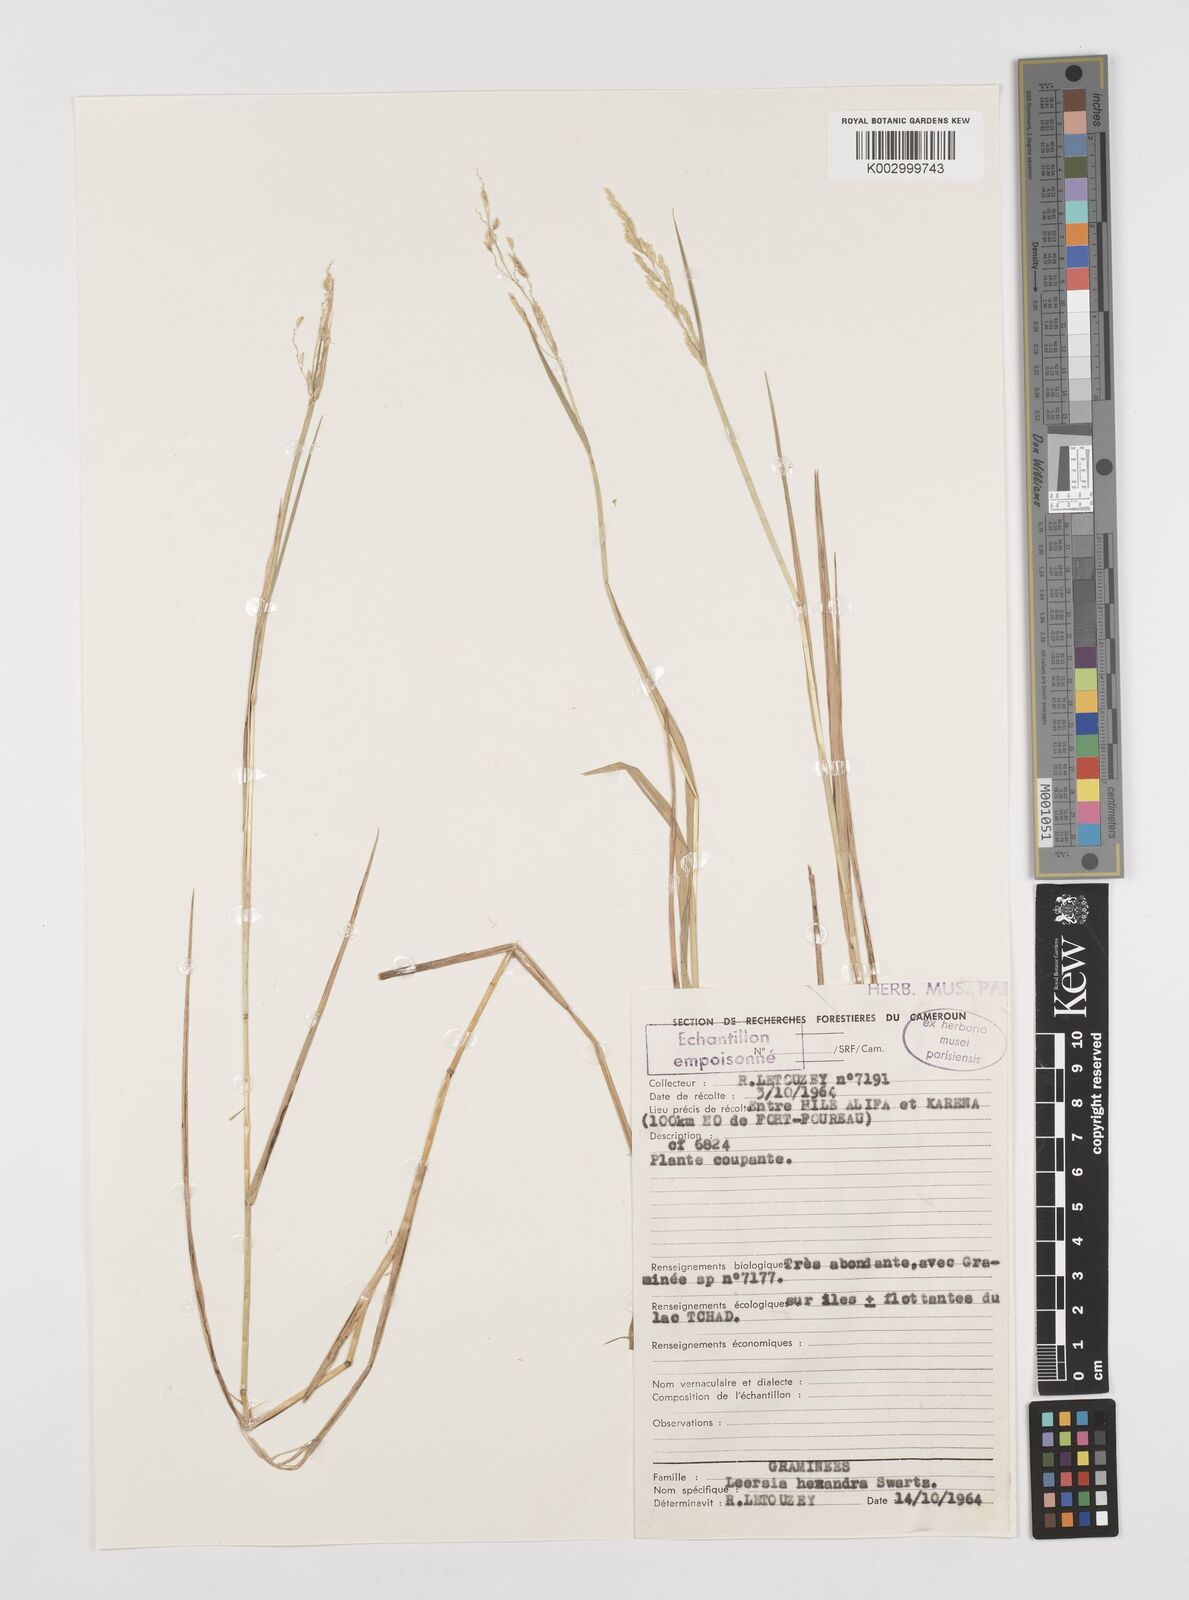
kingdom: Plantae
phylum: Tracheophyta
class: Liliopsida
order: Poales
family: Poaceae
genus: Leersia
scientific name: Leersia hexandra
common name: Southern cut grass
